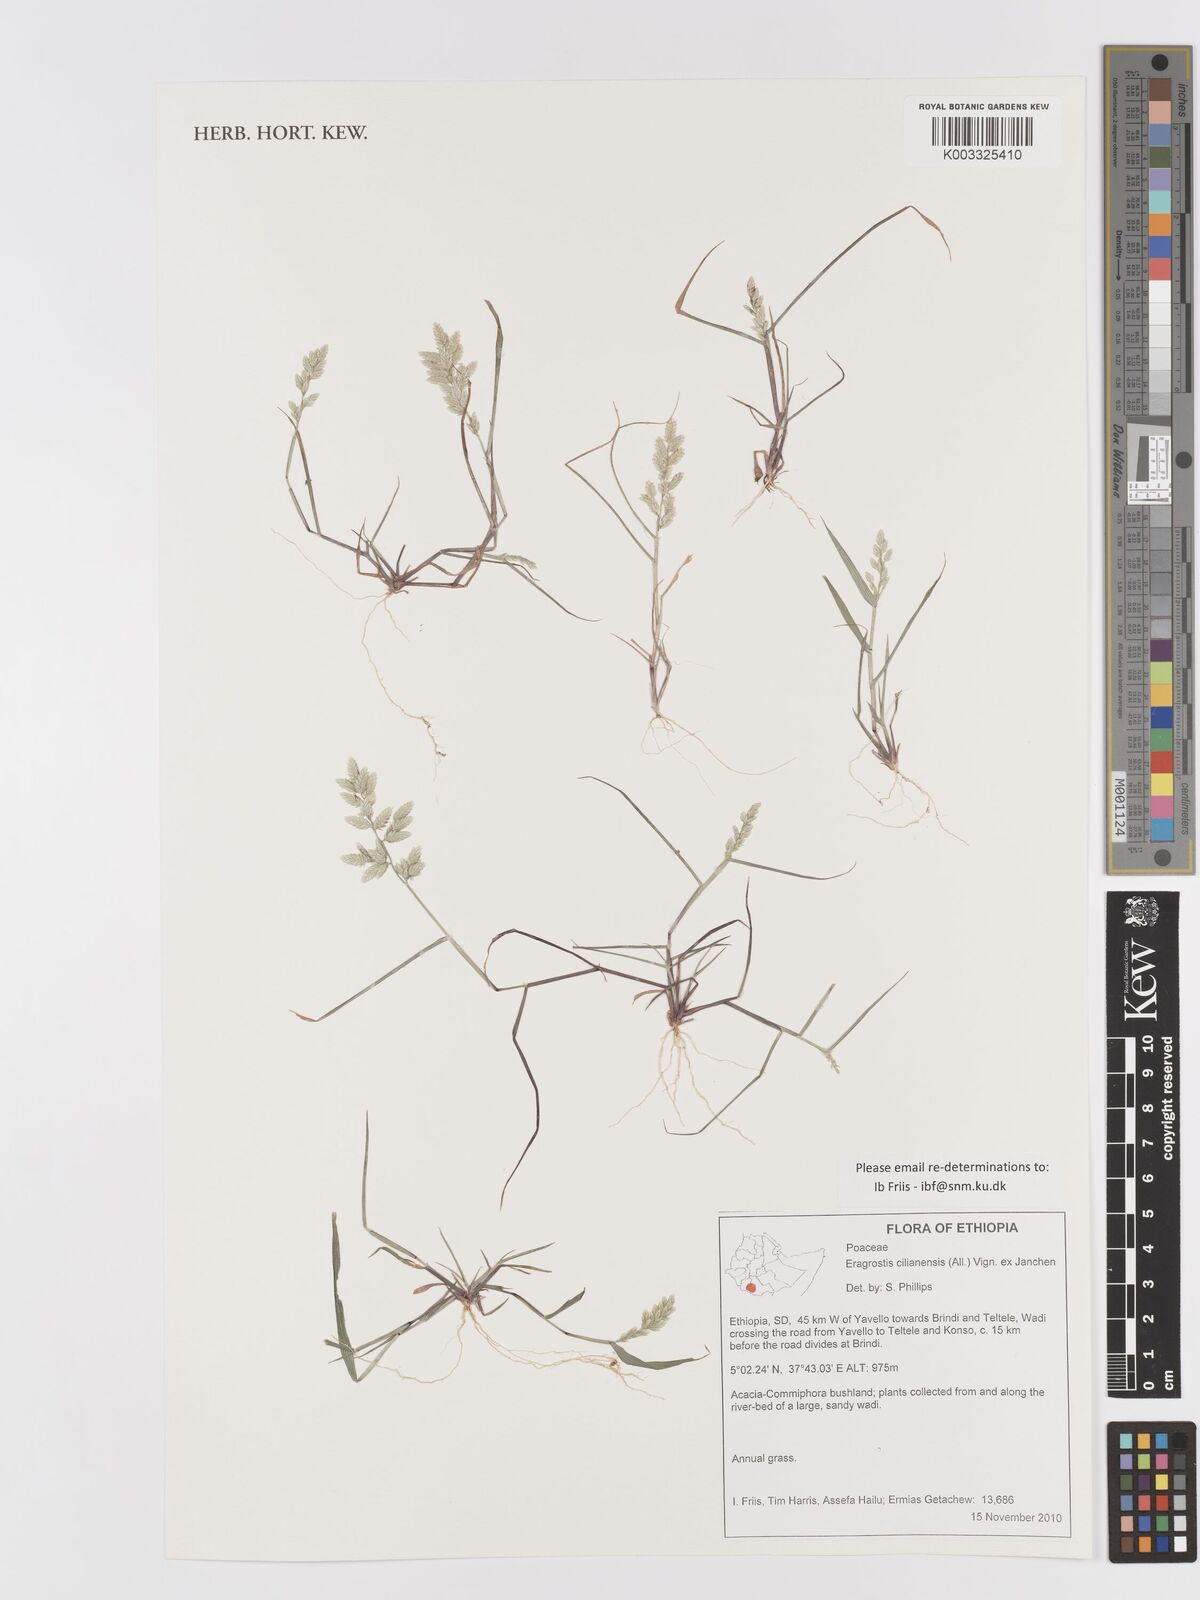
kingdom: Plantae
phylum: Tracheophyta
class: Liliopsida
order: Poales
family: Poaceae
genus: Eragrostis
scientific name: Eragrostis cilianensis
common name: Stinkgrass
